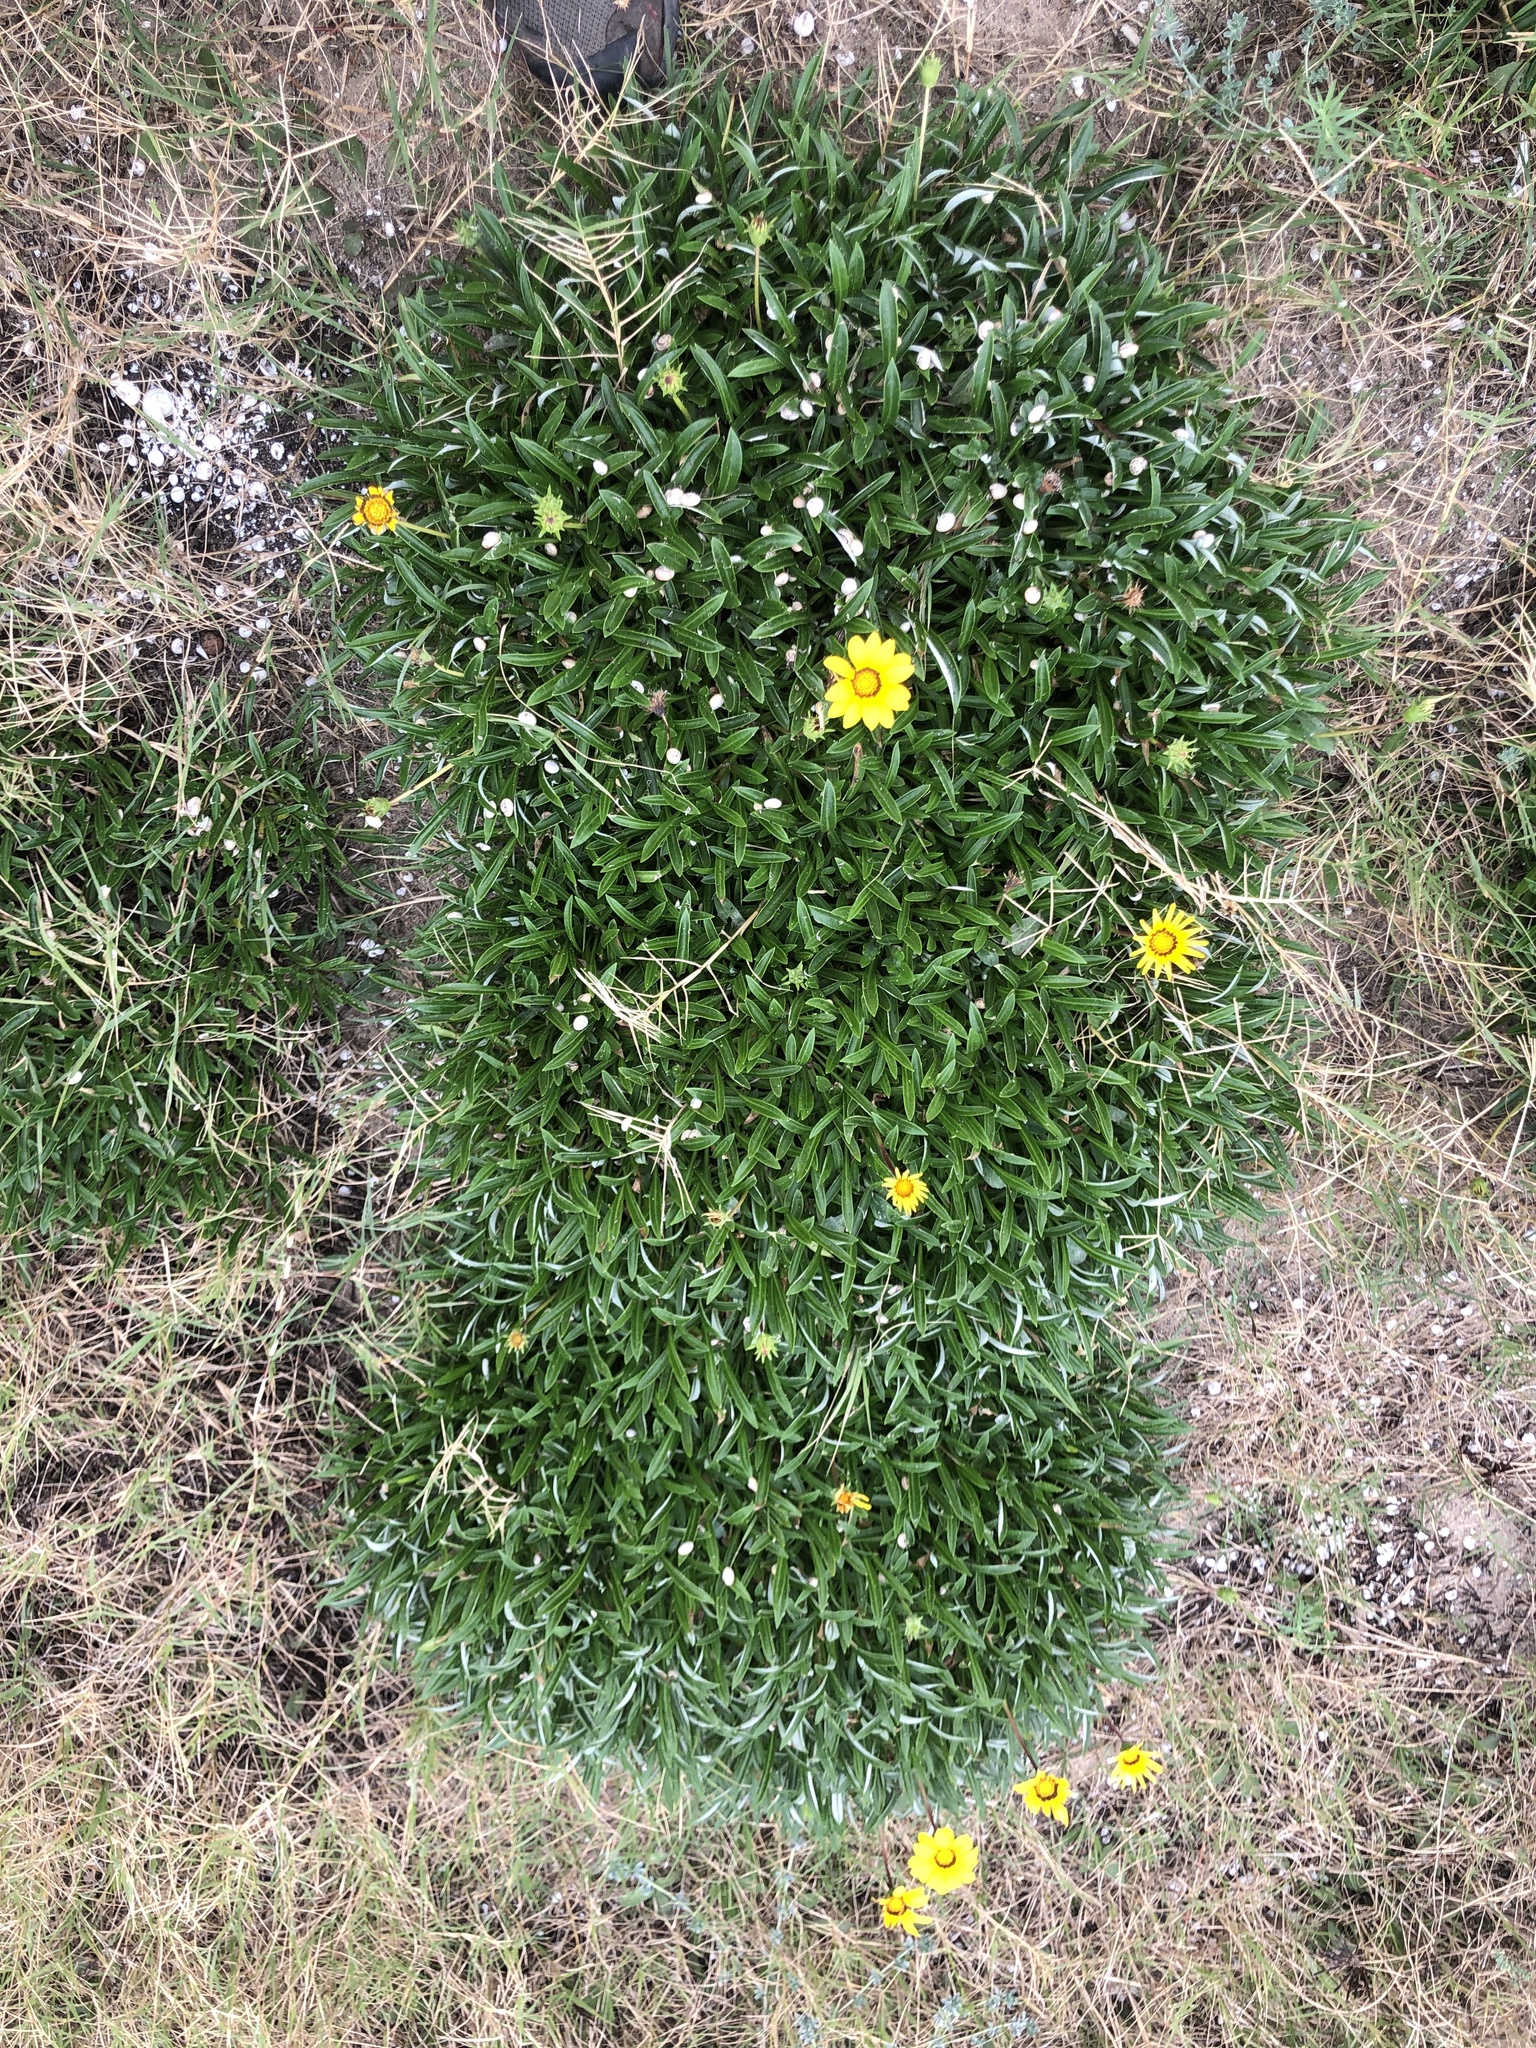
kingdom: Plantae
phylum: Tracheophyta
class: Magnoliopsida
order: Asterales
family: Asteraceae
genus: Gazania
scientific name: Gazania rigens
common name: Treasureflower
